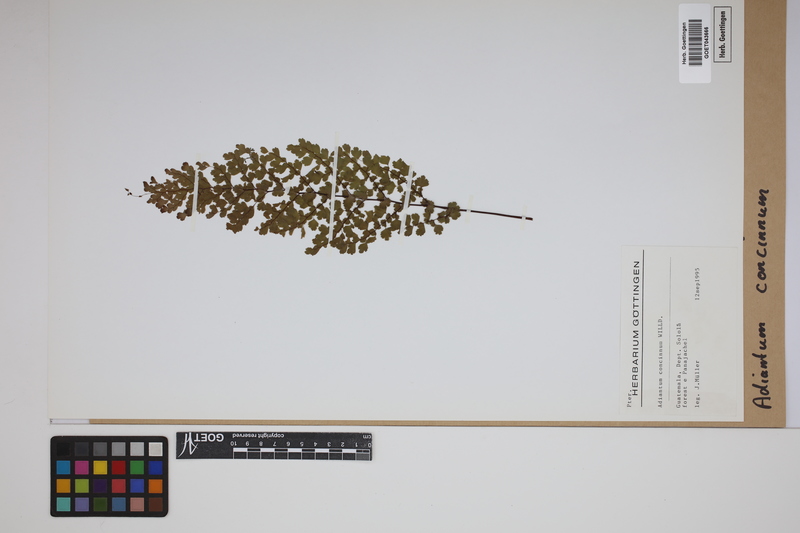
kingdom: Plantae
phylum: Tracheophyta
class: Polypodiopsida
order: Polypodiales
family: Pteridaceae
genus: Adiantum
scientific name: Adiantum concinnum
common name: Brittle maidenhair fern
